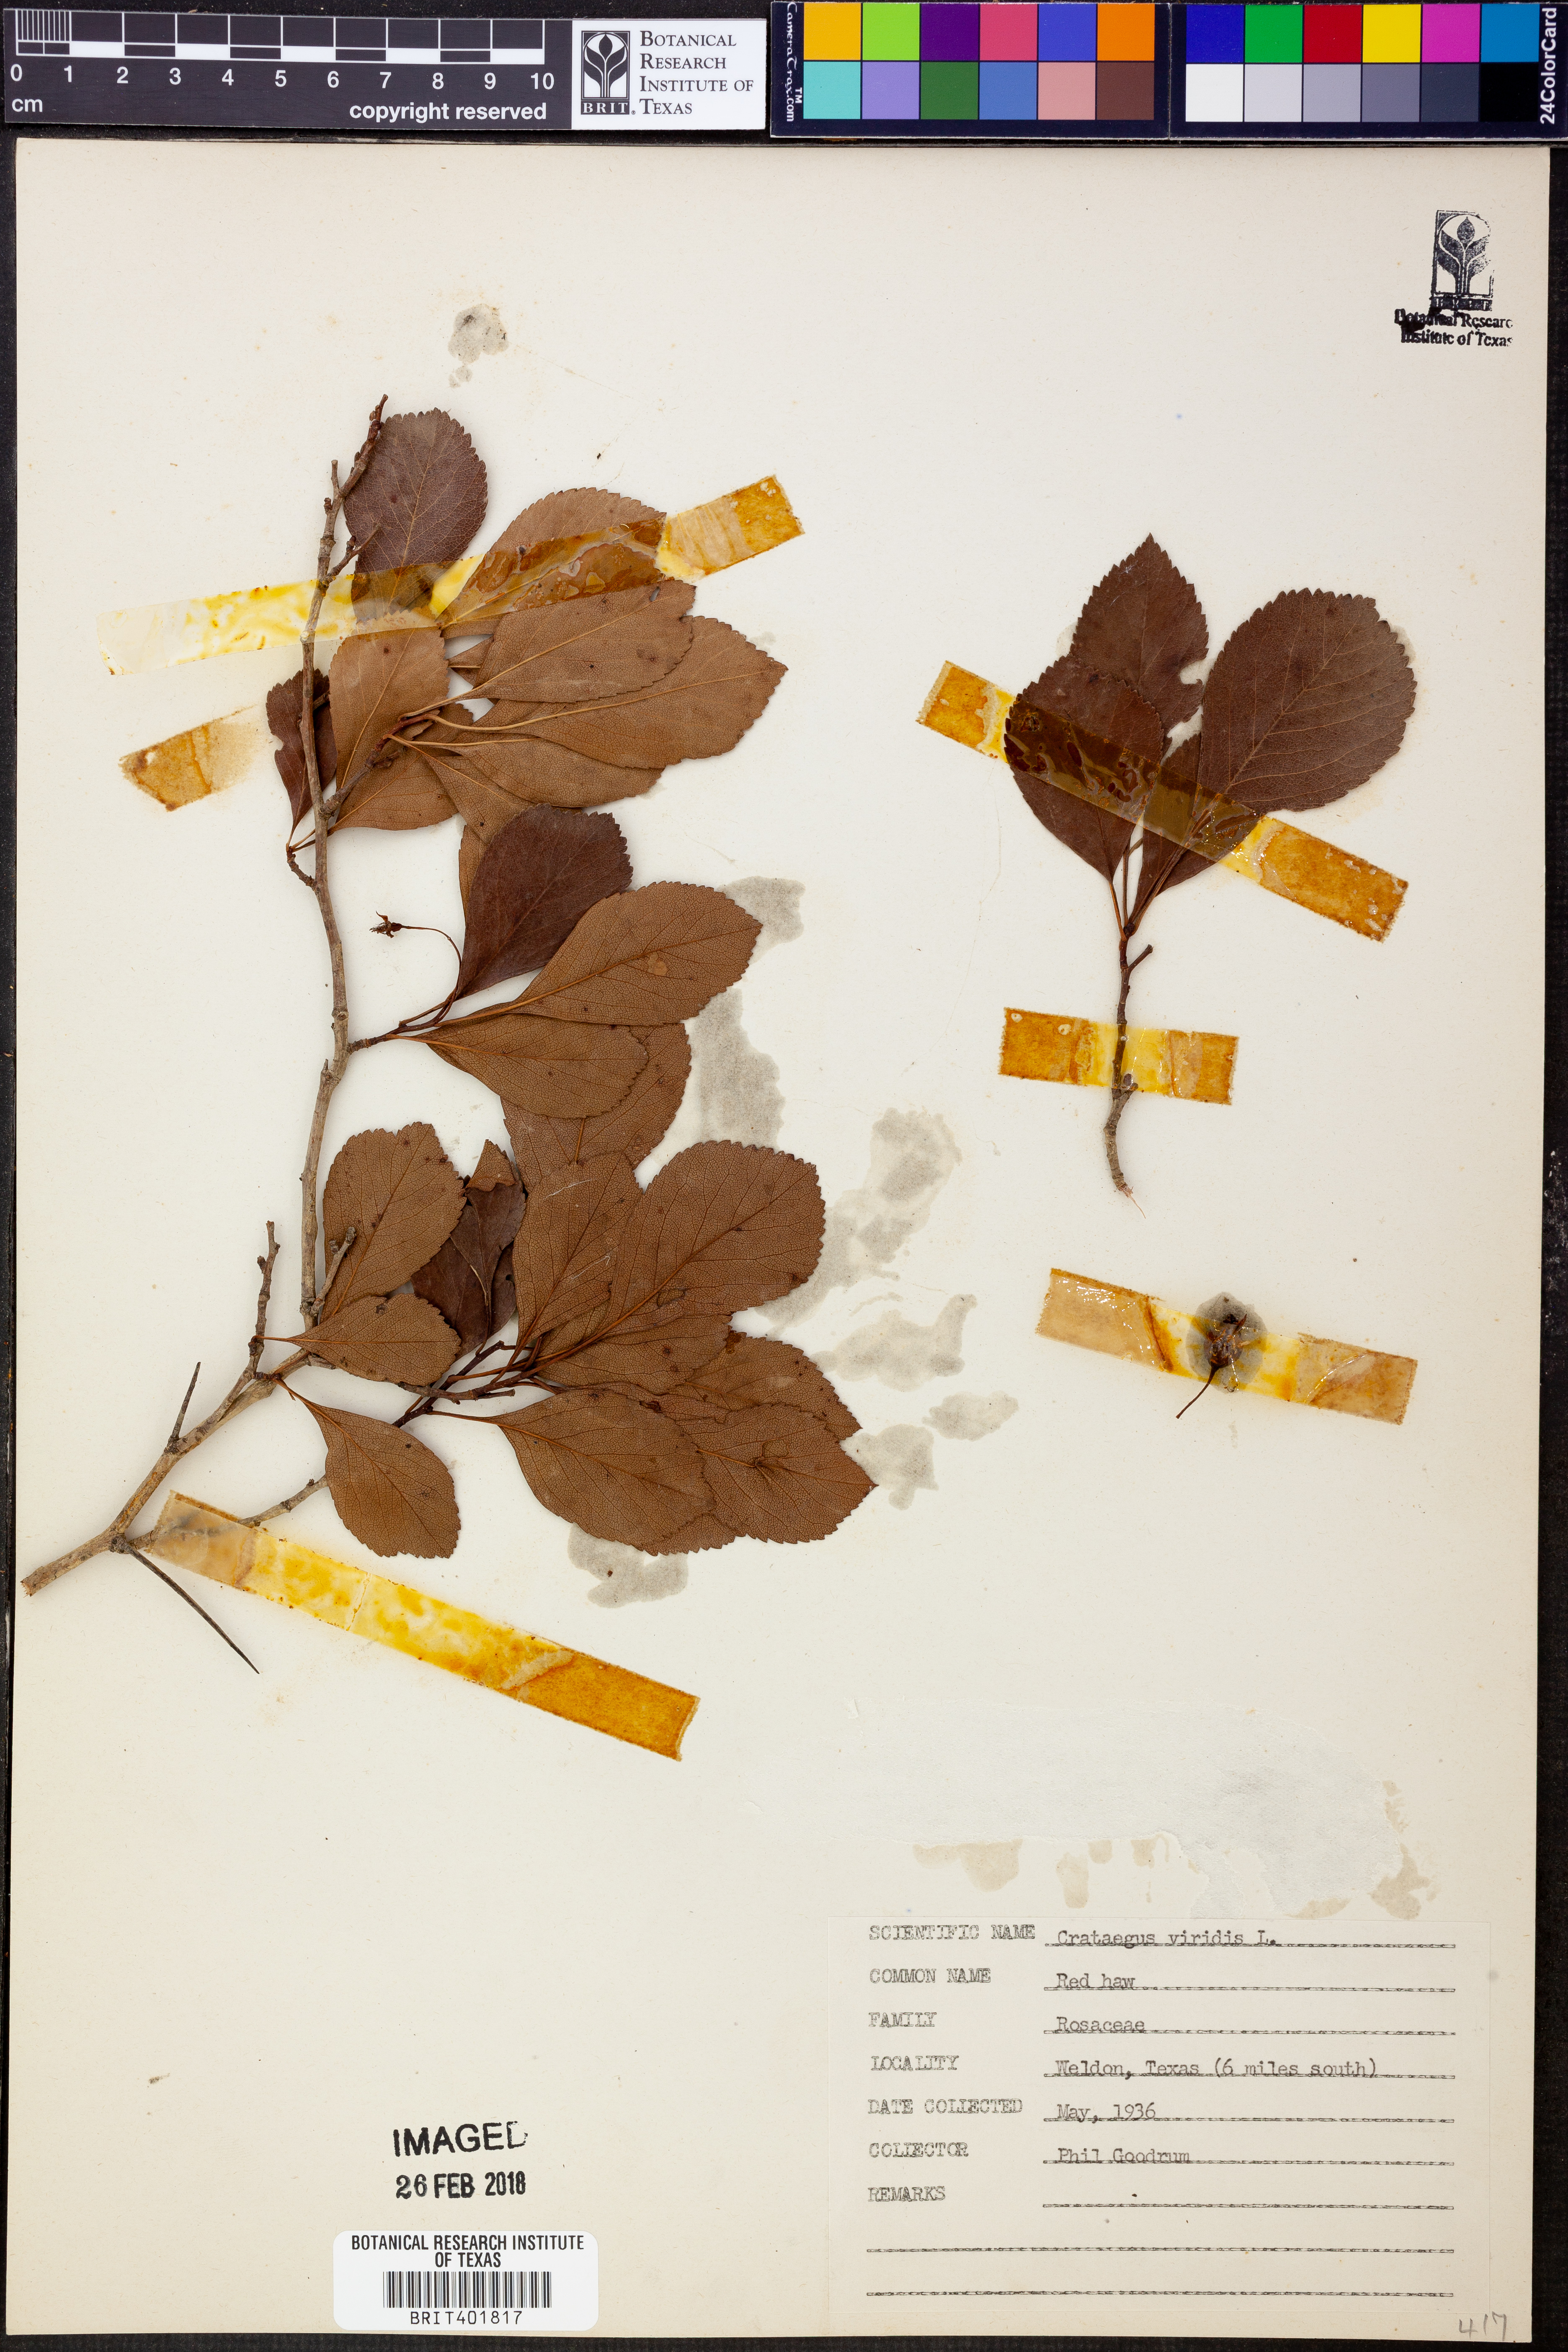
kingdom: Plantae
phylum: Tracheophyta
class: Magnoliopsida
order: Rosales
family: Rosaceae
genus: Crataegus
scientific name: Crataegus viridis
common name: Southernthorn
